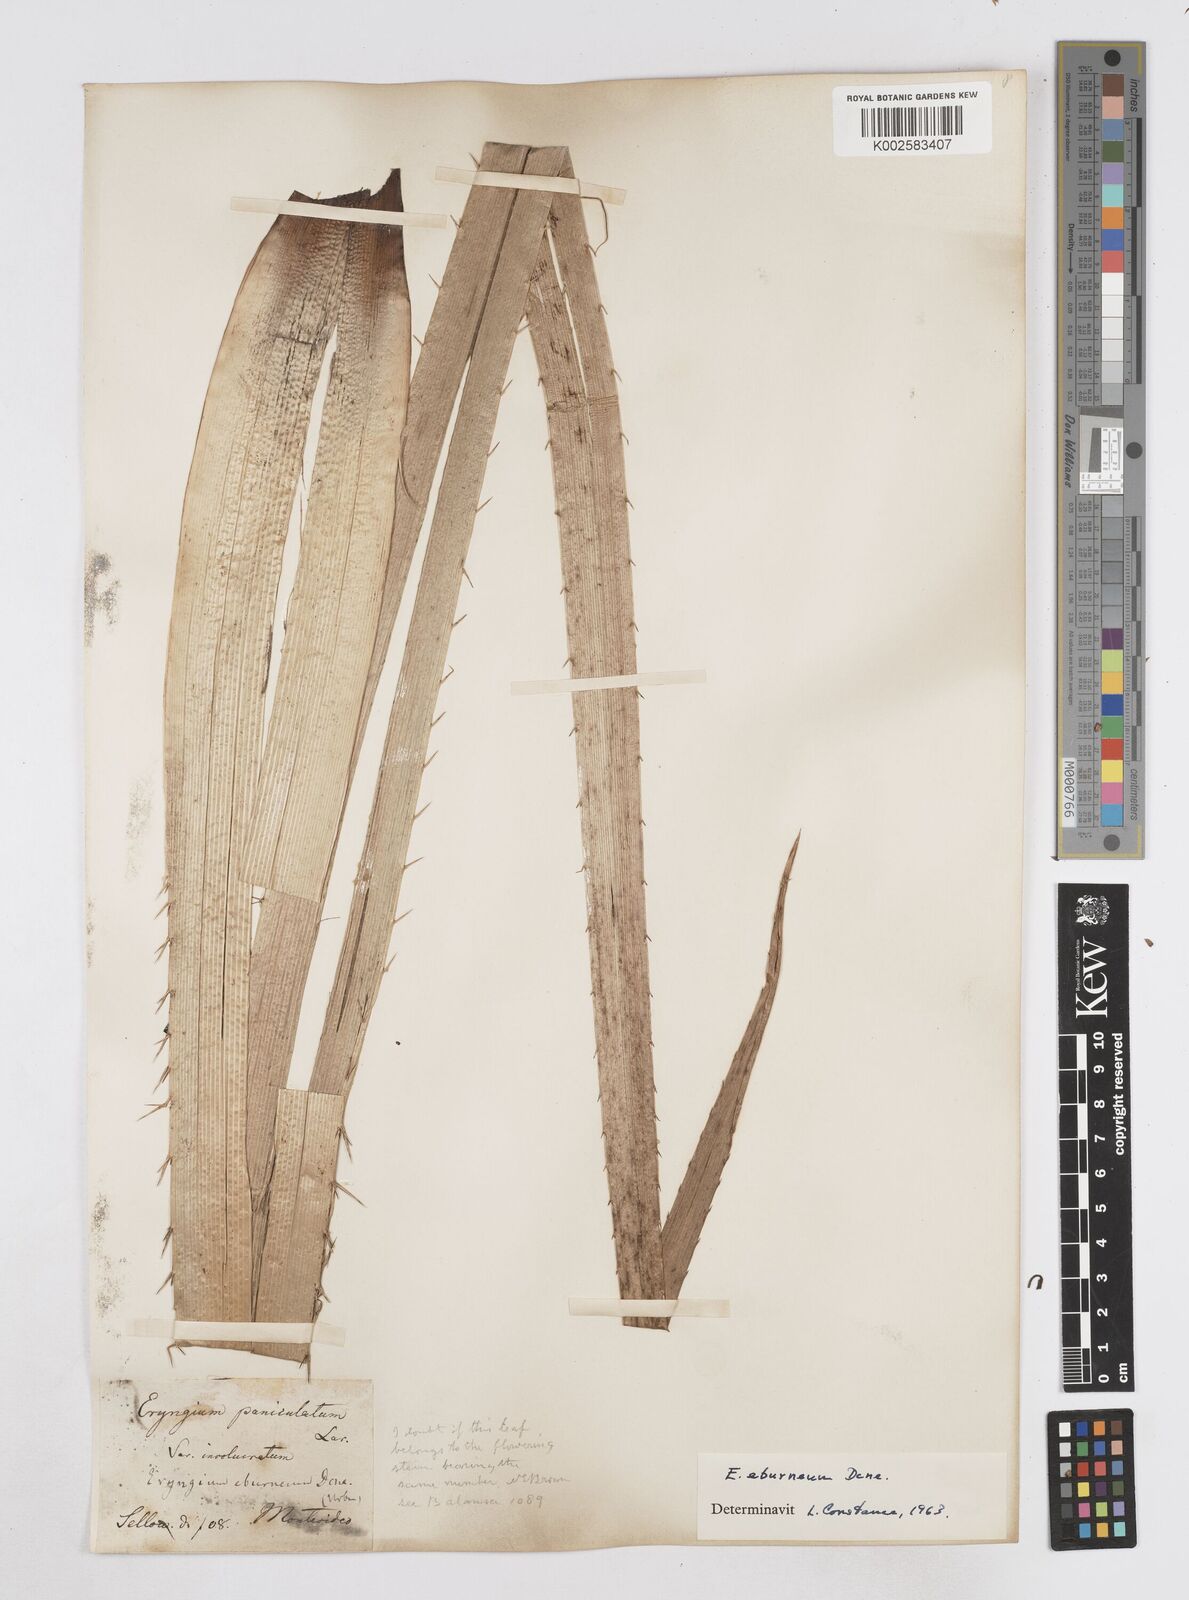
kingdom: Plantae
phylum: Tracheophyta
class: Magnoliopsida
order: Apiales
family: Apiaceae
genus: Eryngium
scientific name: Eryngium eburneum
